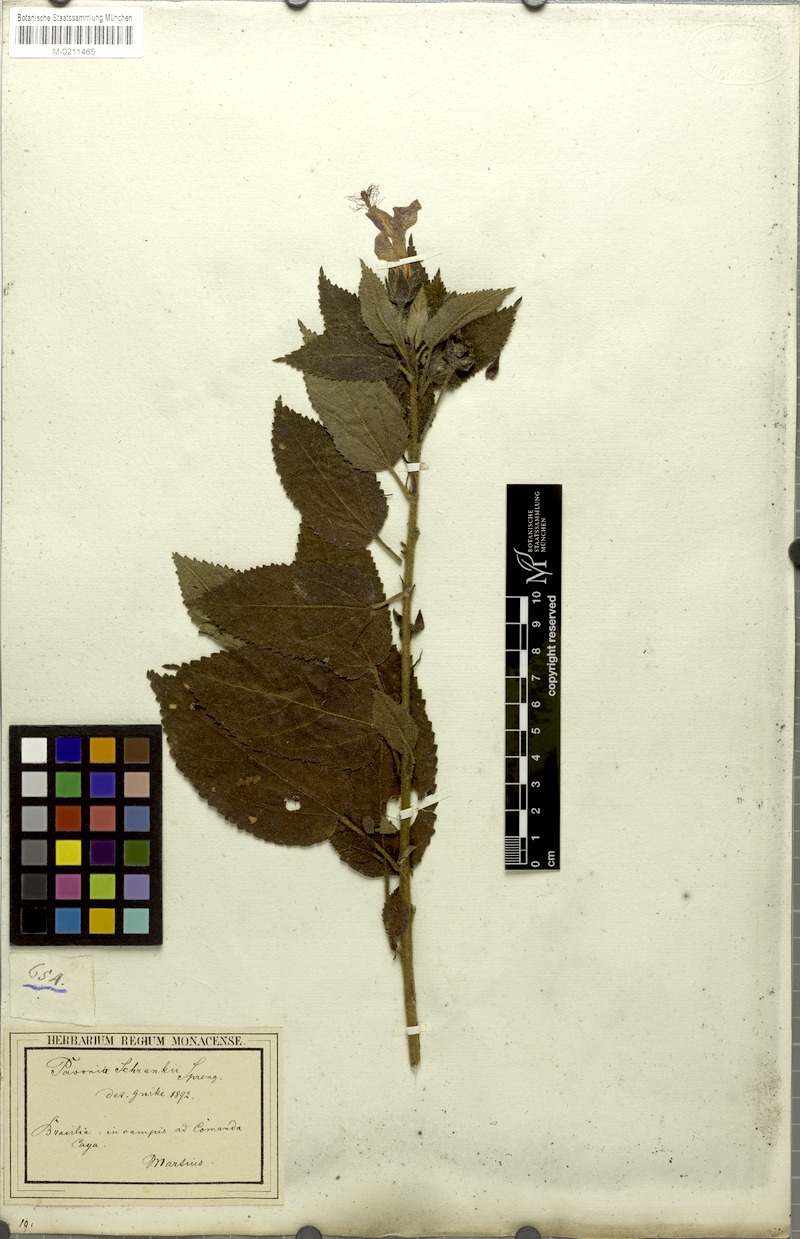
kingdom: Plantae
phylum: Tracheophyta
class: Magnoliopsida
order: Malvales
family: Malvaceae
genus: Pavonia
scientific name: Pavonia schrankii
